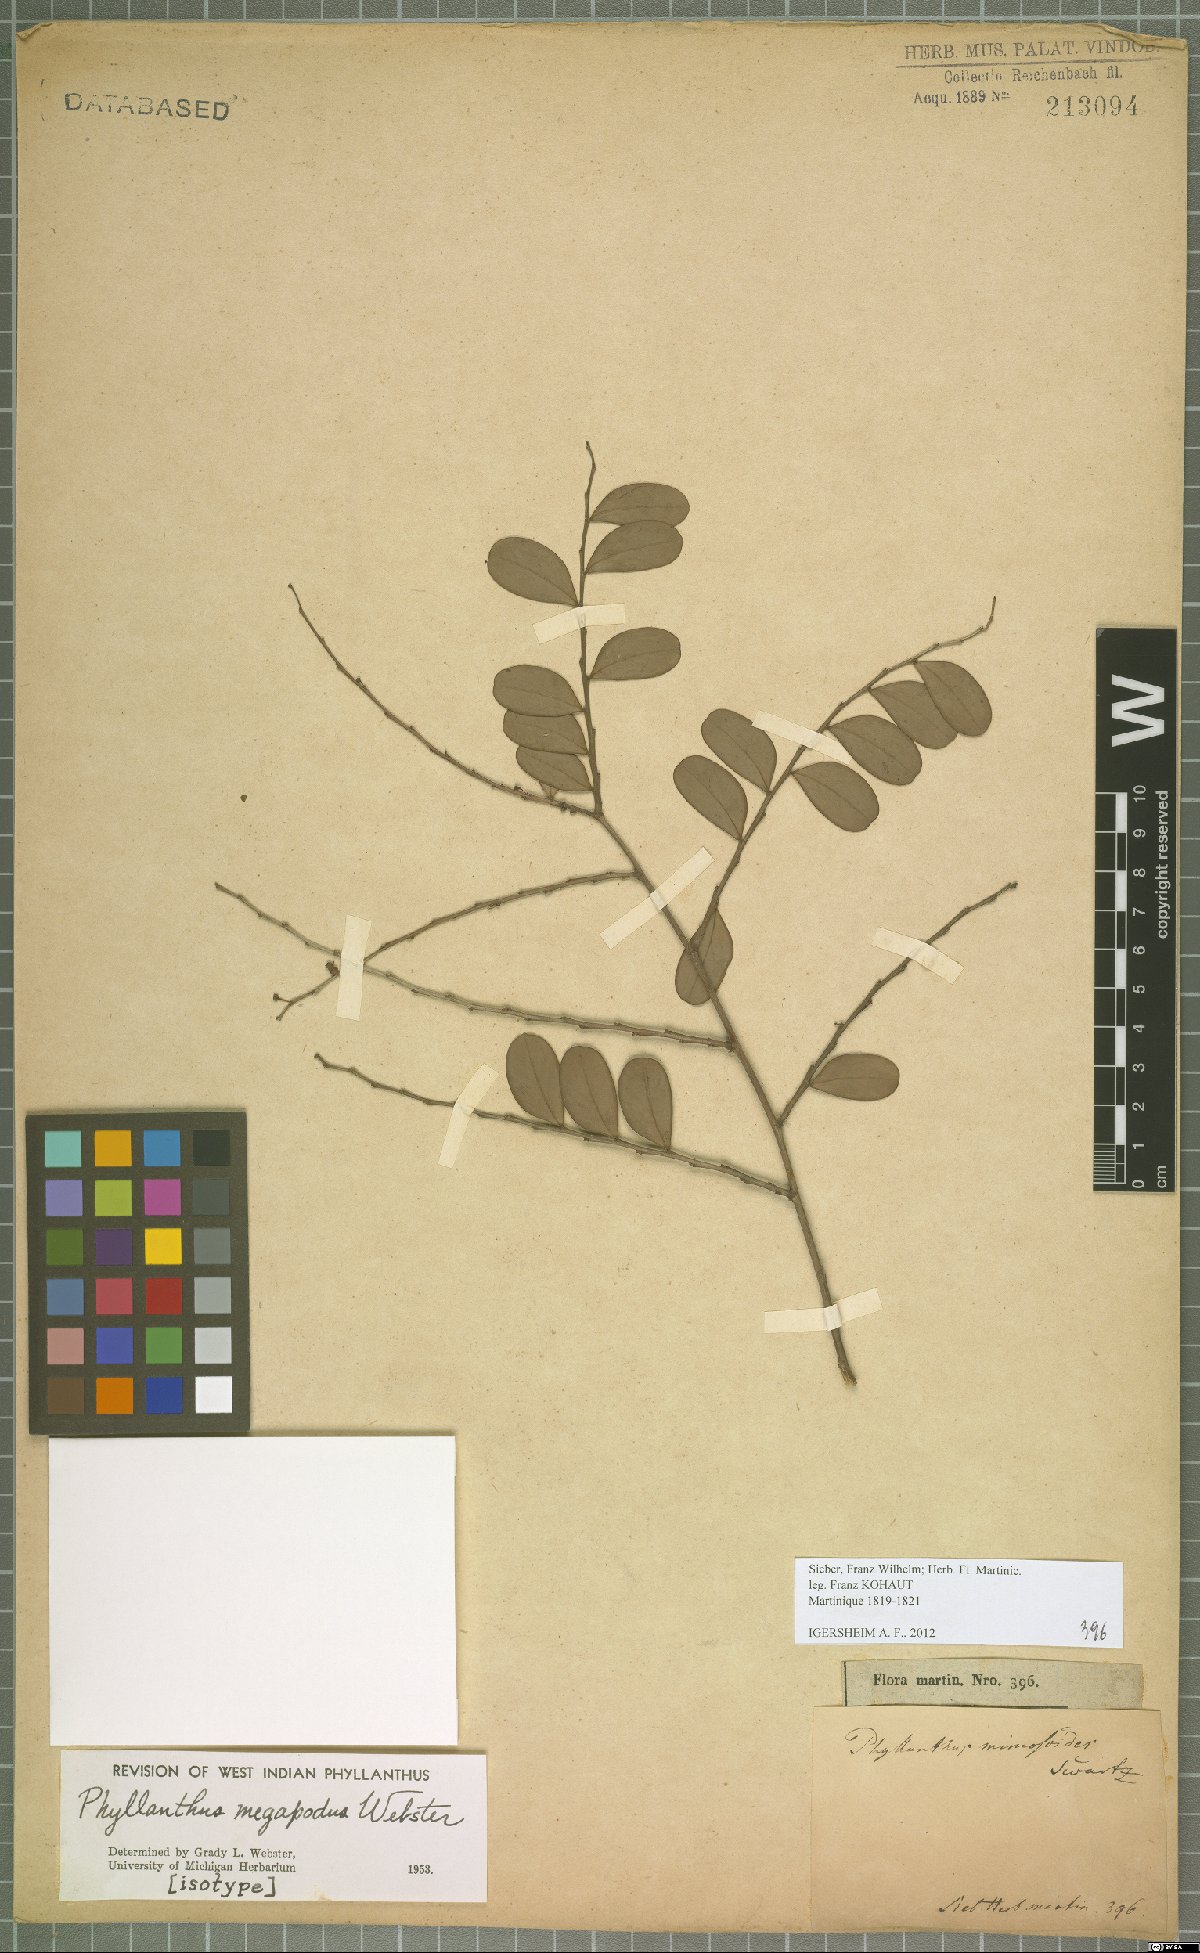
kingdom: Plantae
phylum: Tracheophyta
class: Magnoliopsida
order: Malpighiales
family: Phyllanthaceae
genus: Phyllanthus
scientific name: Phyllanthus megapodus
